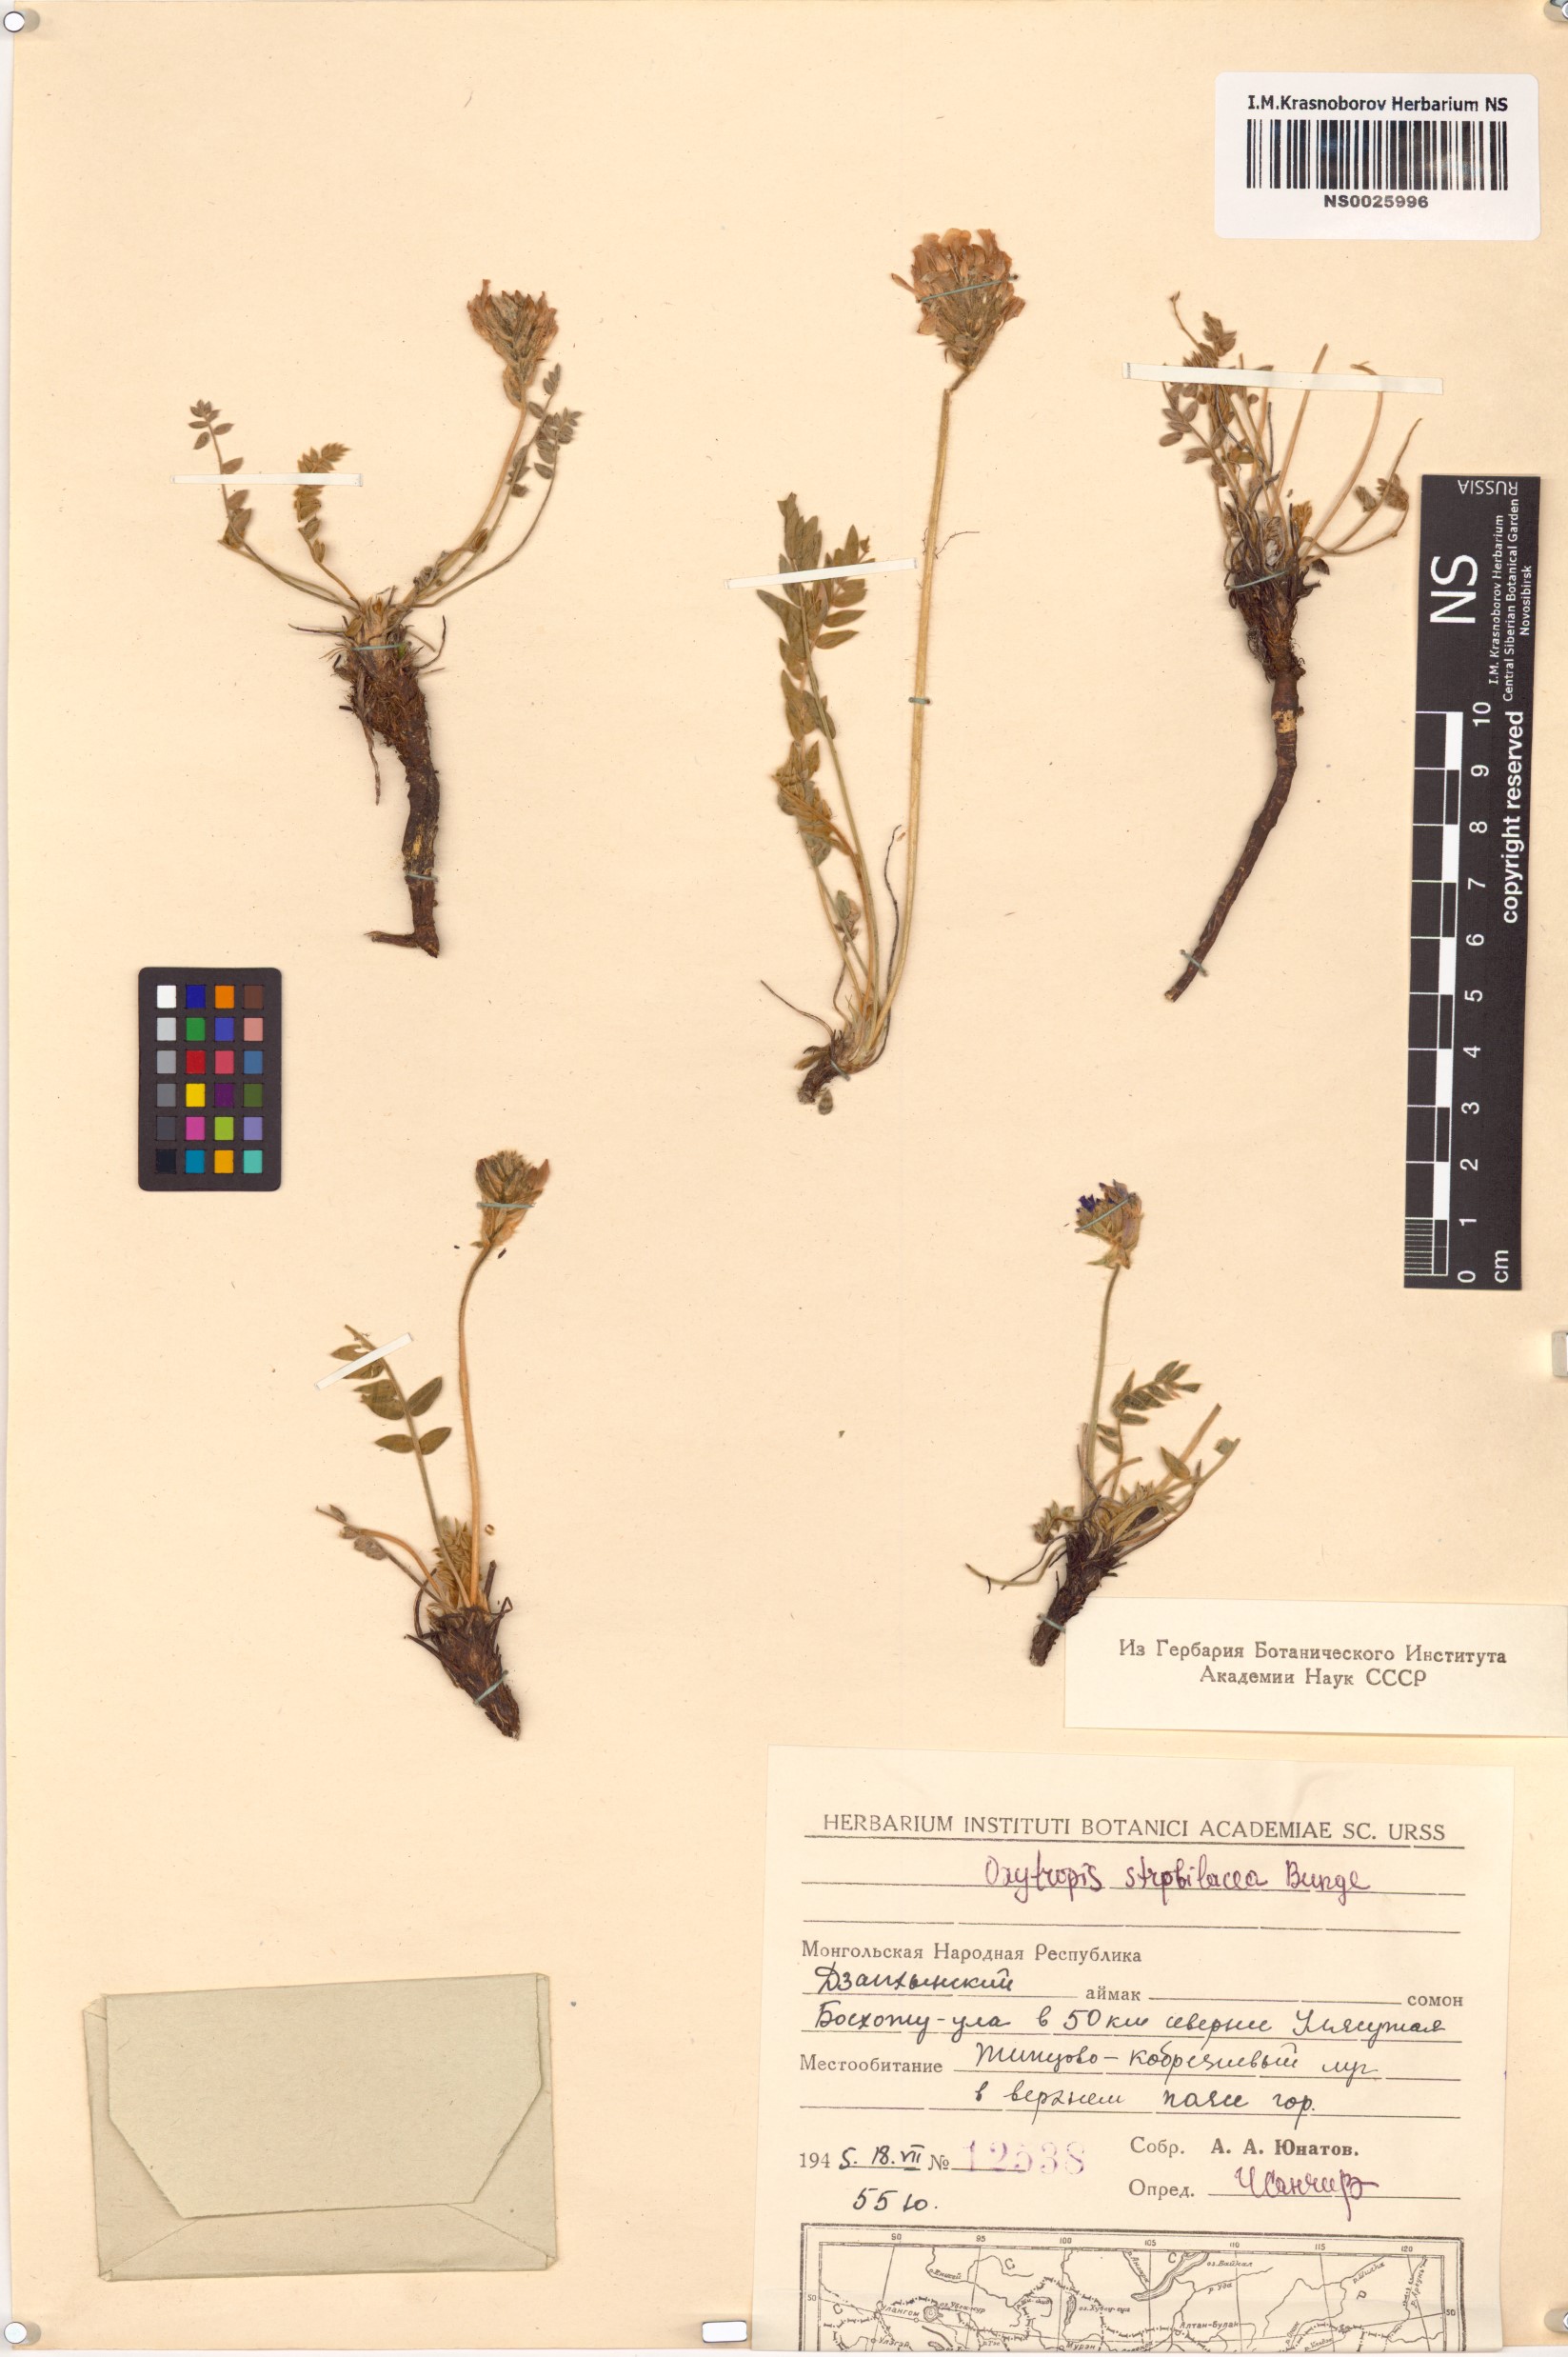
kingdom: Plantae
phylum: Tracheophyta
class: Magnoliopsida
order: Fabales
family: Fabaceae
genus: Oxytropis
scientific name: Oxytropis strobilacea
